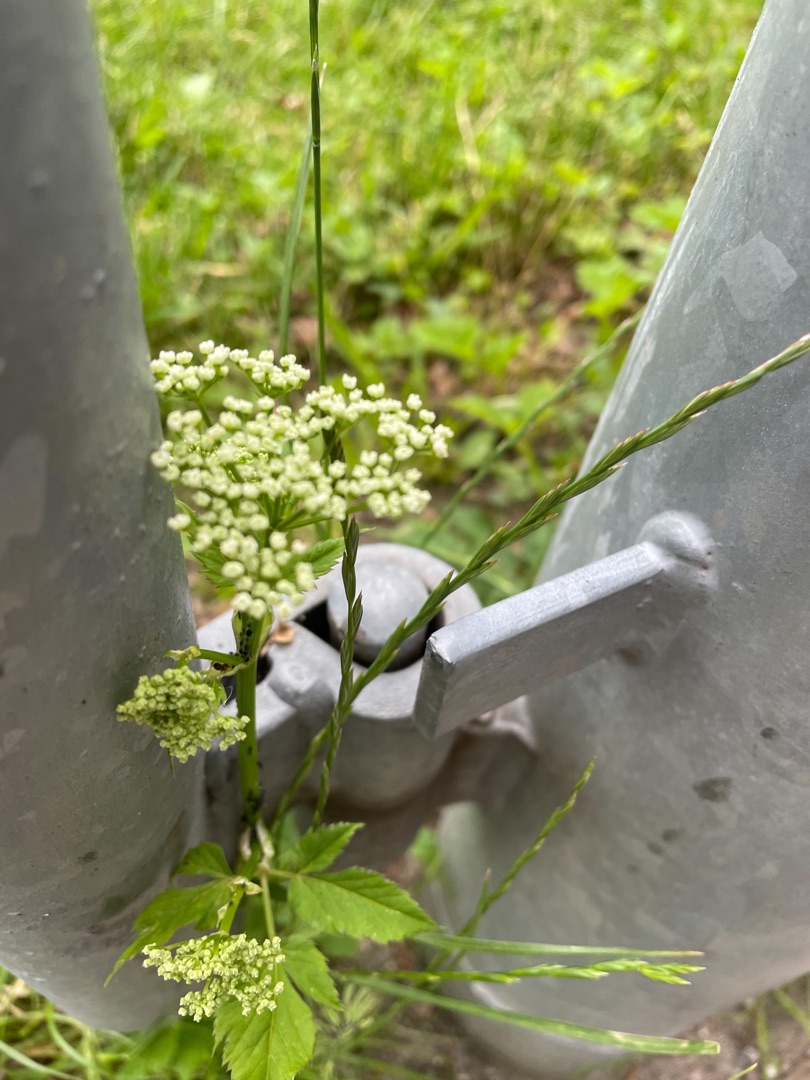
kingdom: Plantae
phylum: Tracheophyta
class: Magnoliopsida
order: Apiales
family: Apiaceae
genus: Aegopodium
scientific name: Aegopodium podagraria
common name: Skvalderkål
